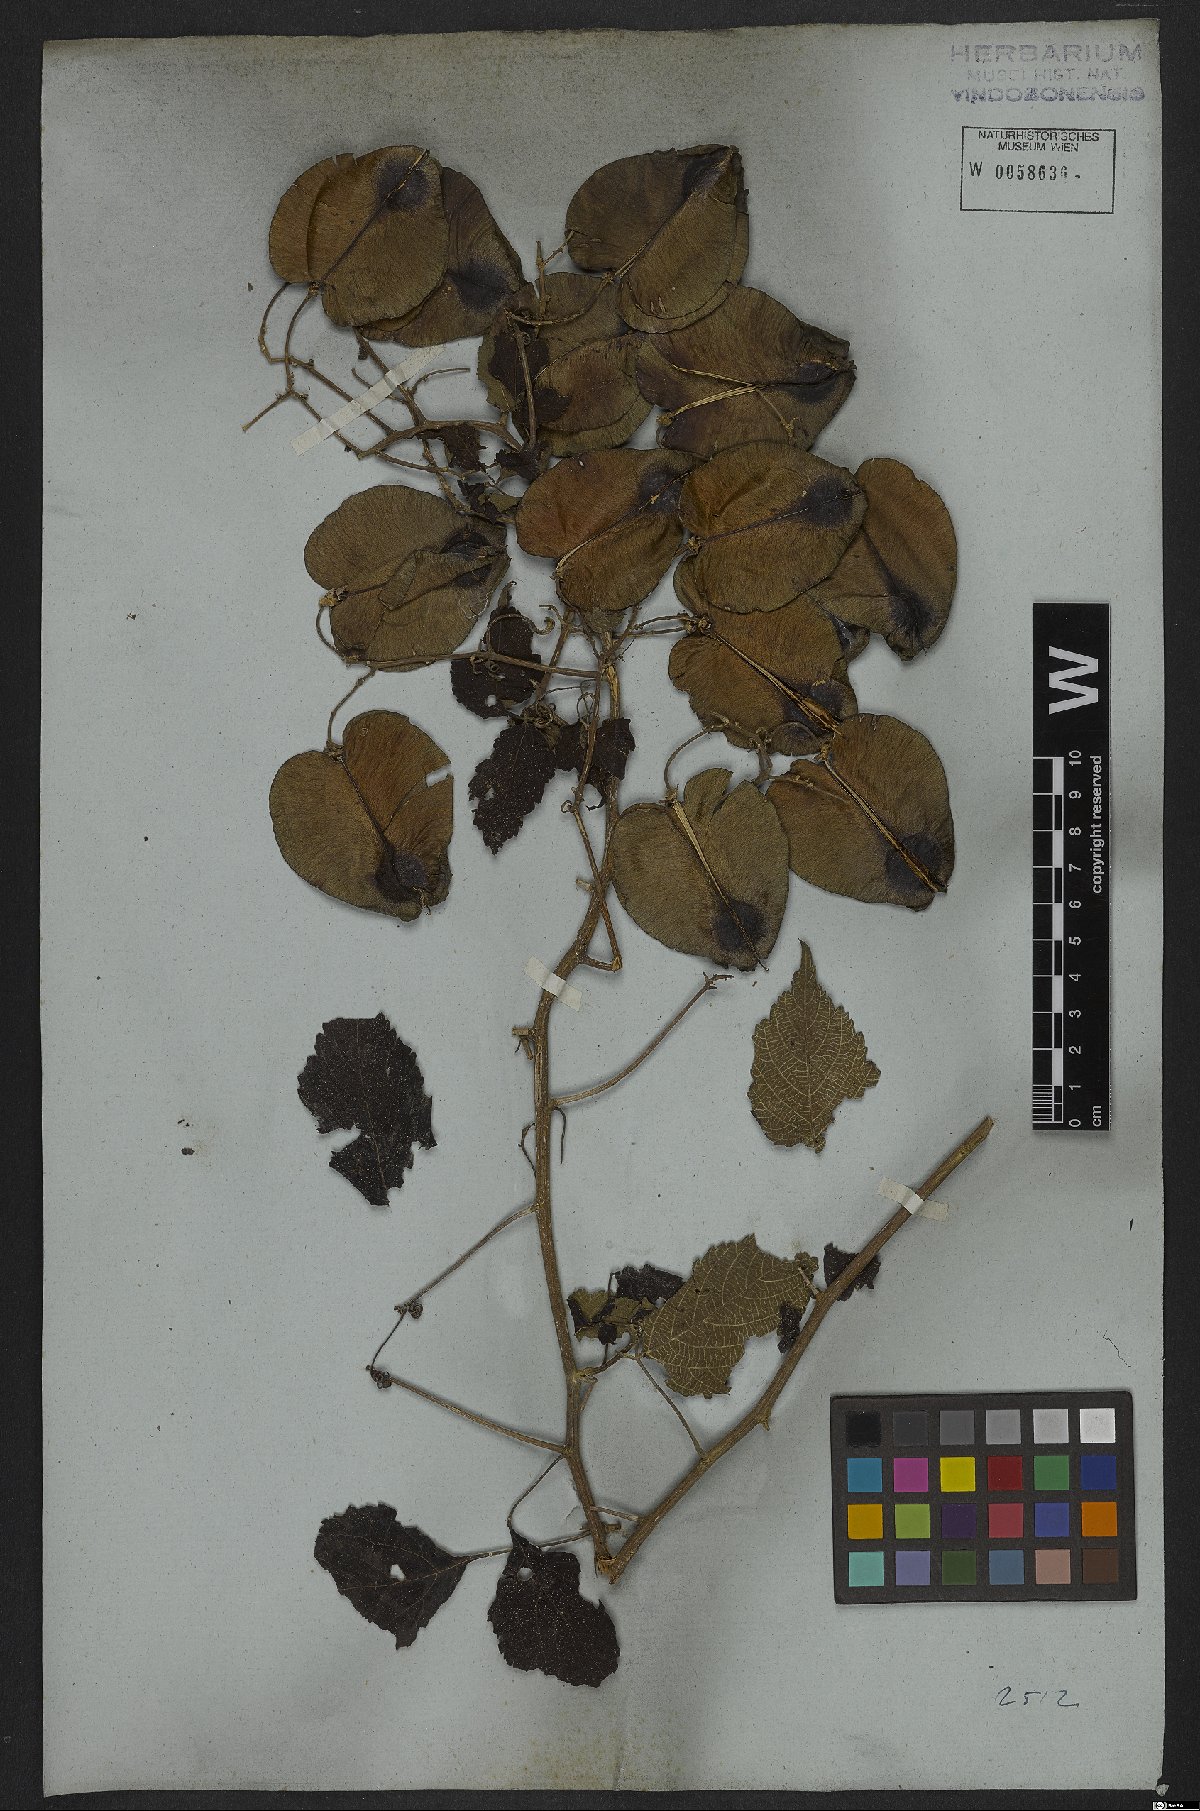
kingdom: Plantae
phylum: Tracheophyta
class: Magnoliopsida
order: Sapindales
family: Sapindaceae
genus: Serjania
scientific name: Serjania platycarpa
